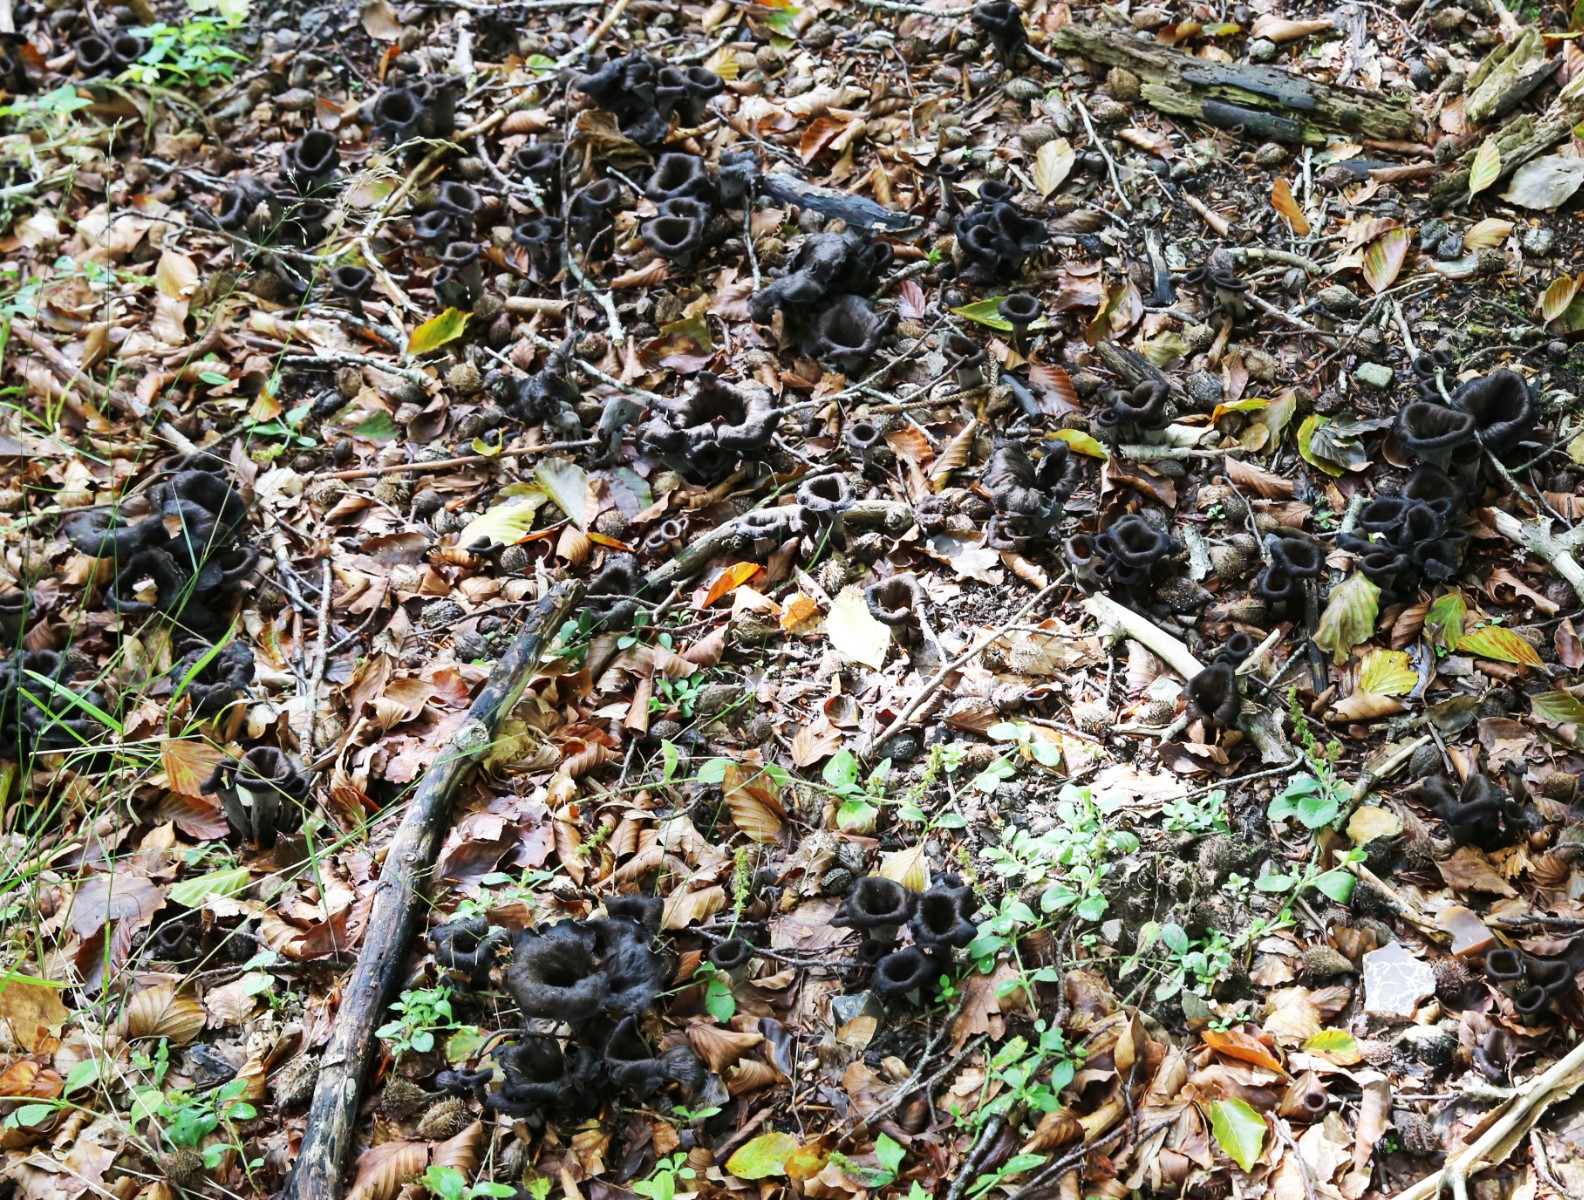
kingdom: Fungi
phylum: Basidiomycota
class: Agaricomycetes
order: Cantharellales
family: Hydnaceae
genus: Craterellus
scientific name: Craterellus cornucopioides
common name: trompetsvamp
